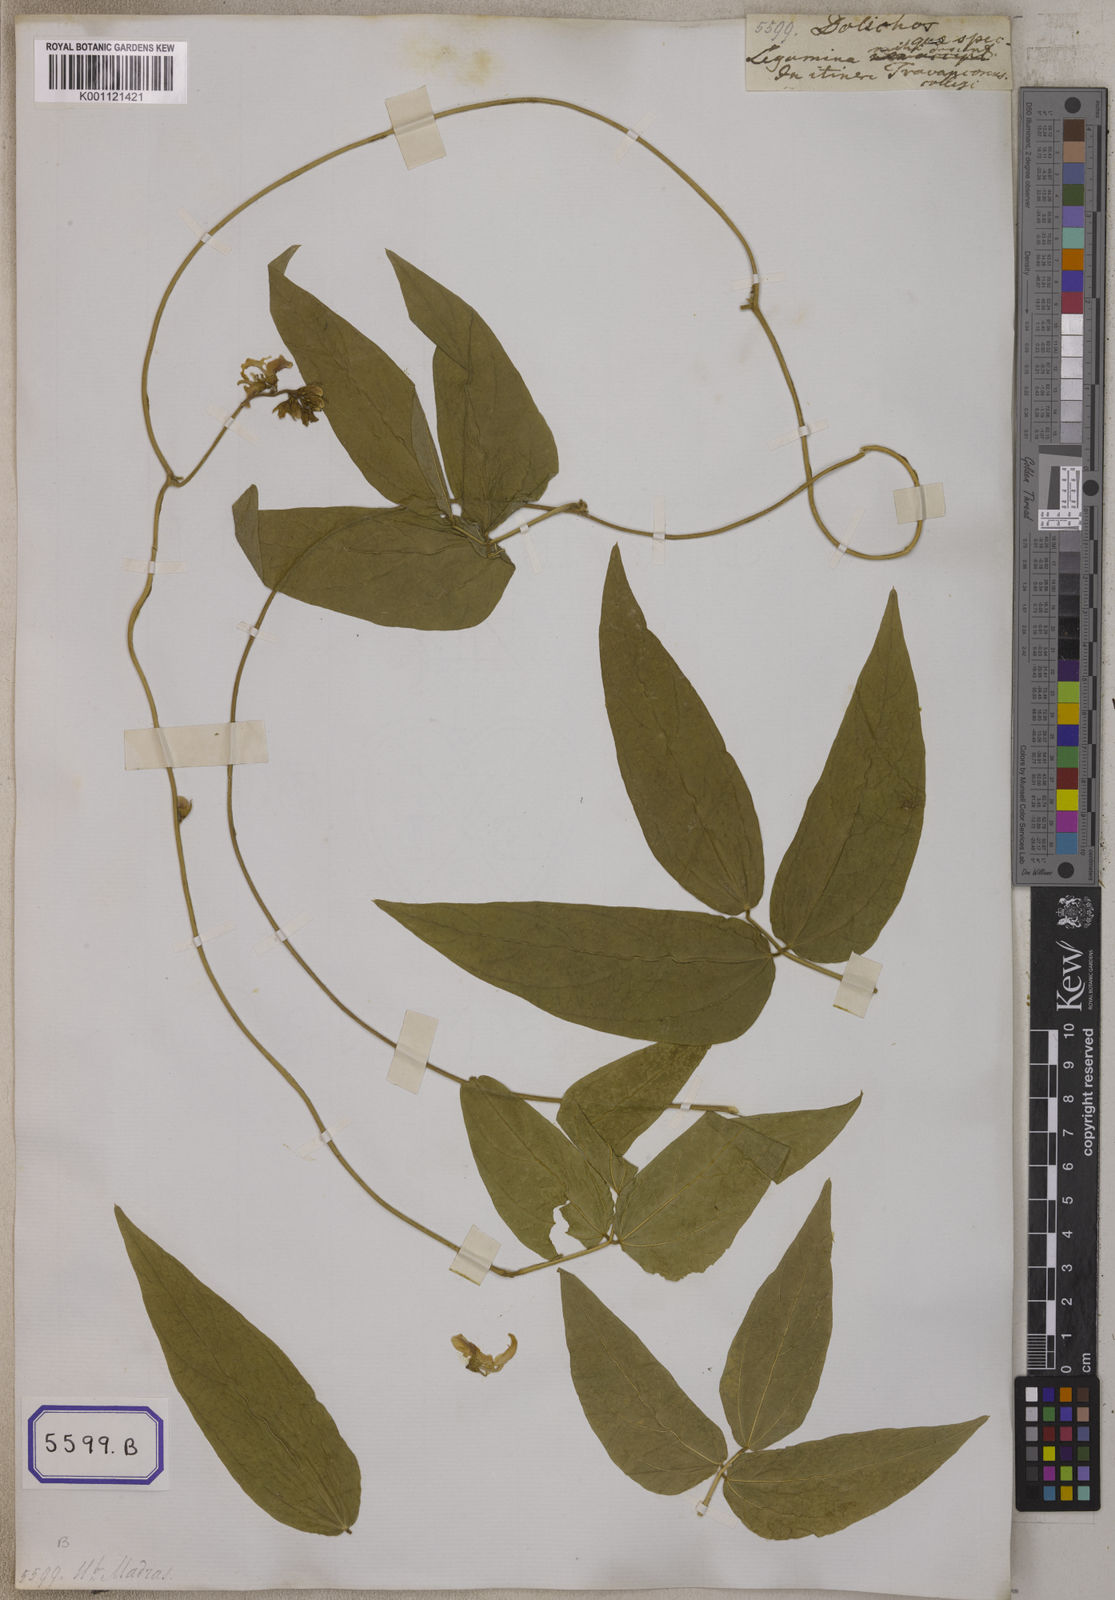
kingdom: Plantae
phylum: Tracheophyta
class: Magnoliopsida
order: Fabales
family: Fabaceae
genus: Dysolobium
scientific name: Dysolobium pilosum
